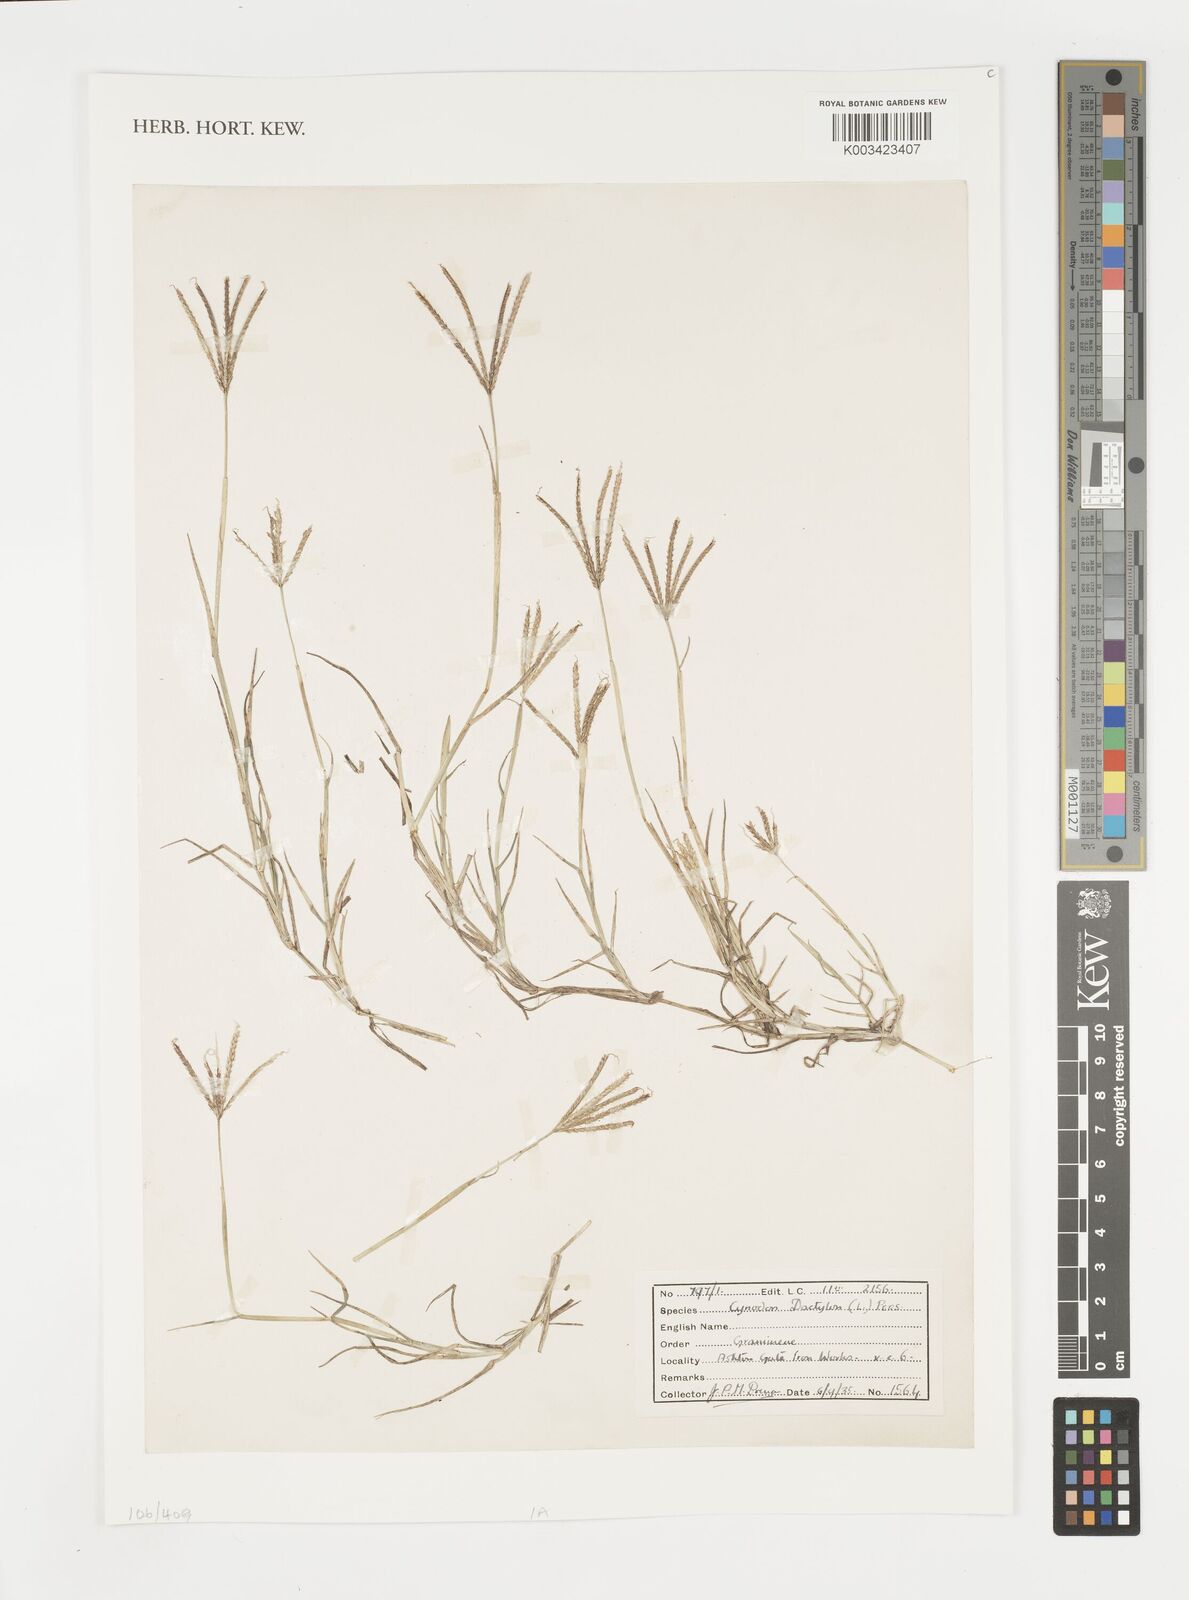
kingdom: Plantae
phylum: Tracheophyta
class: Liliopsida
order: Poales
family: Poaceae
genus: Cynodon
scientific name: Cynodon dactylon
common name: Bermuda grass
